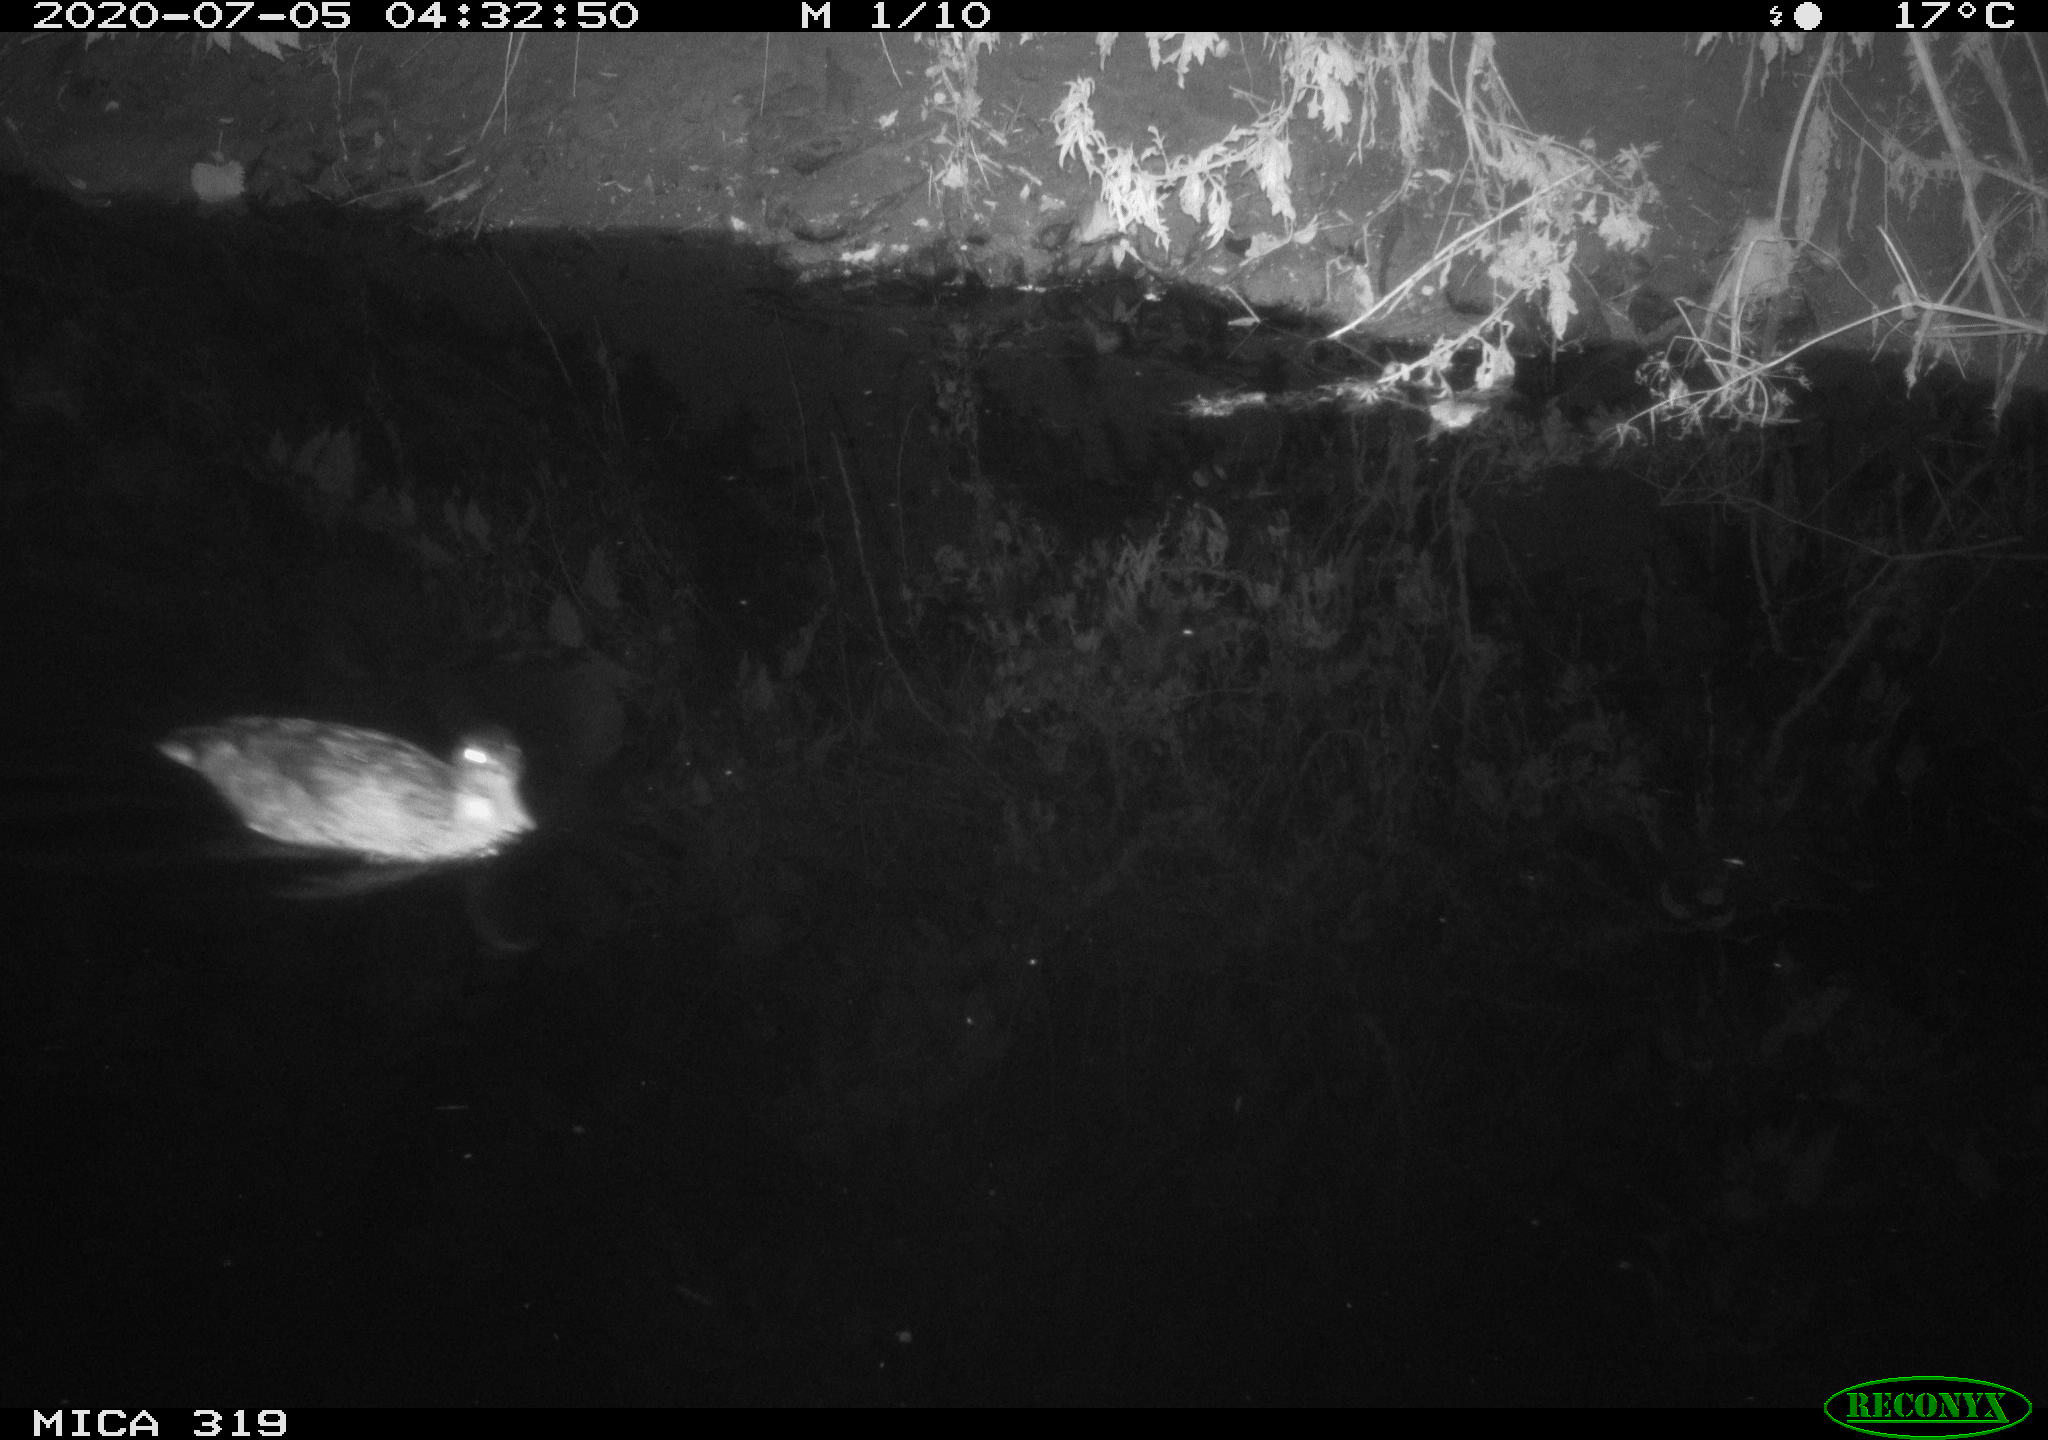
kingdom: Animalia
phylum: Chordata
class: Aves
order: Anseriformes
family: Anatidae
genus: Anas
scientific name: Anas platyrhynchos
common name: Mallard
